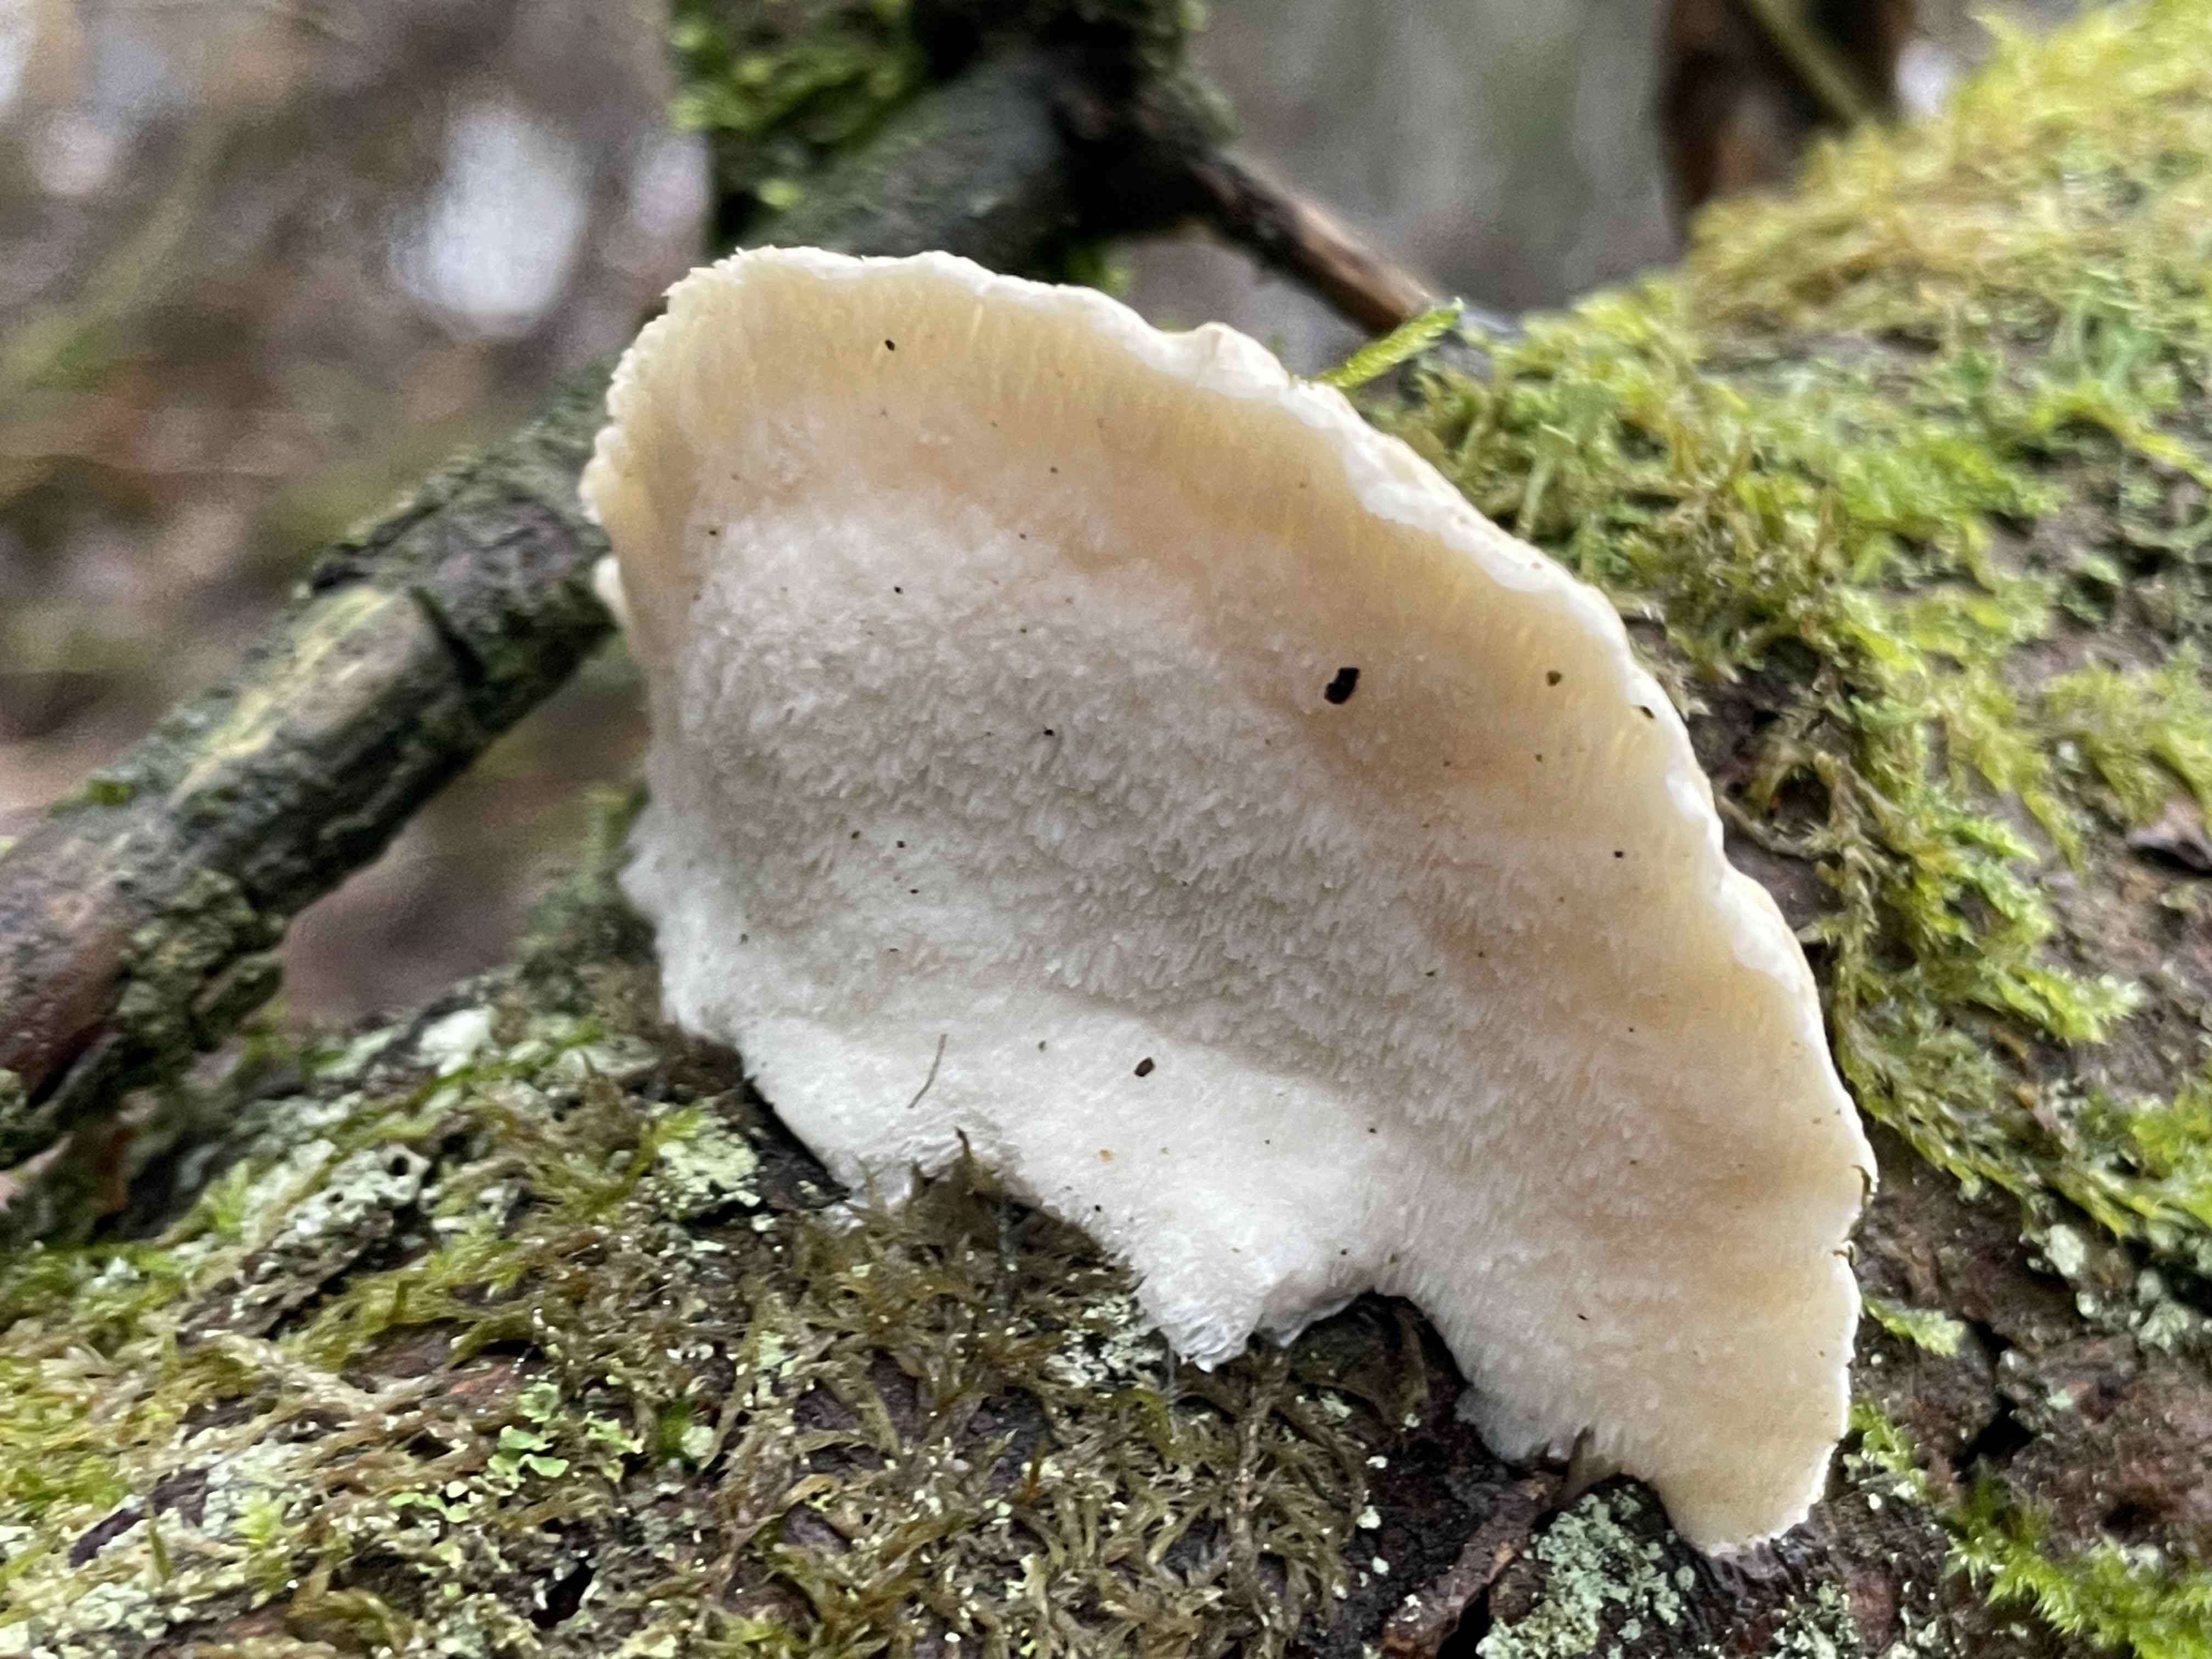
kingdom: Fungi
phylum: Basidiomycota
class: Agaricomycetes
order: Polyporales
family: Incrustoporiaceae
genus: Tyromyces
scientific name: Tyromyces chioneus
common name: stor blødporesvamp
